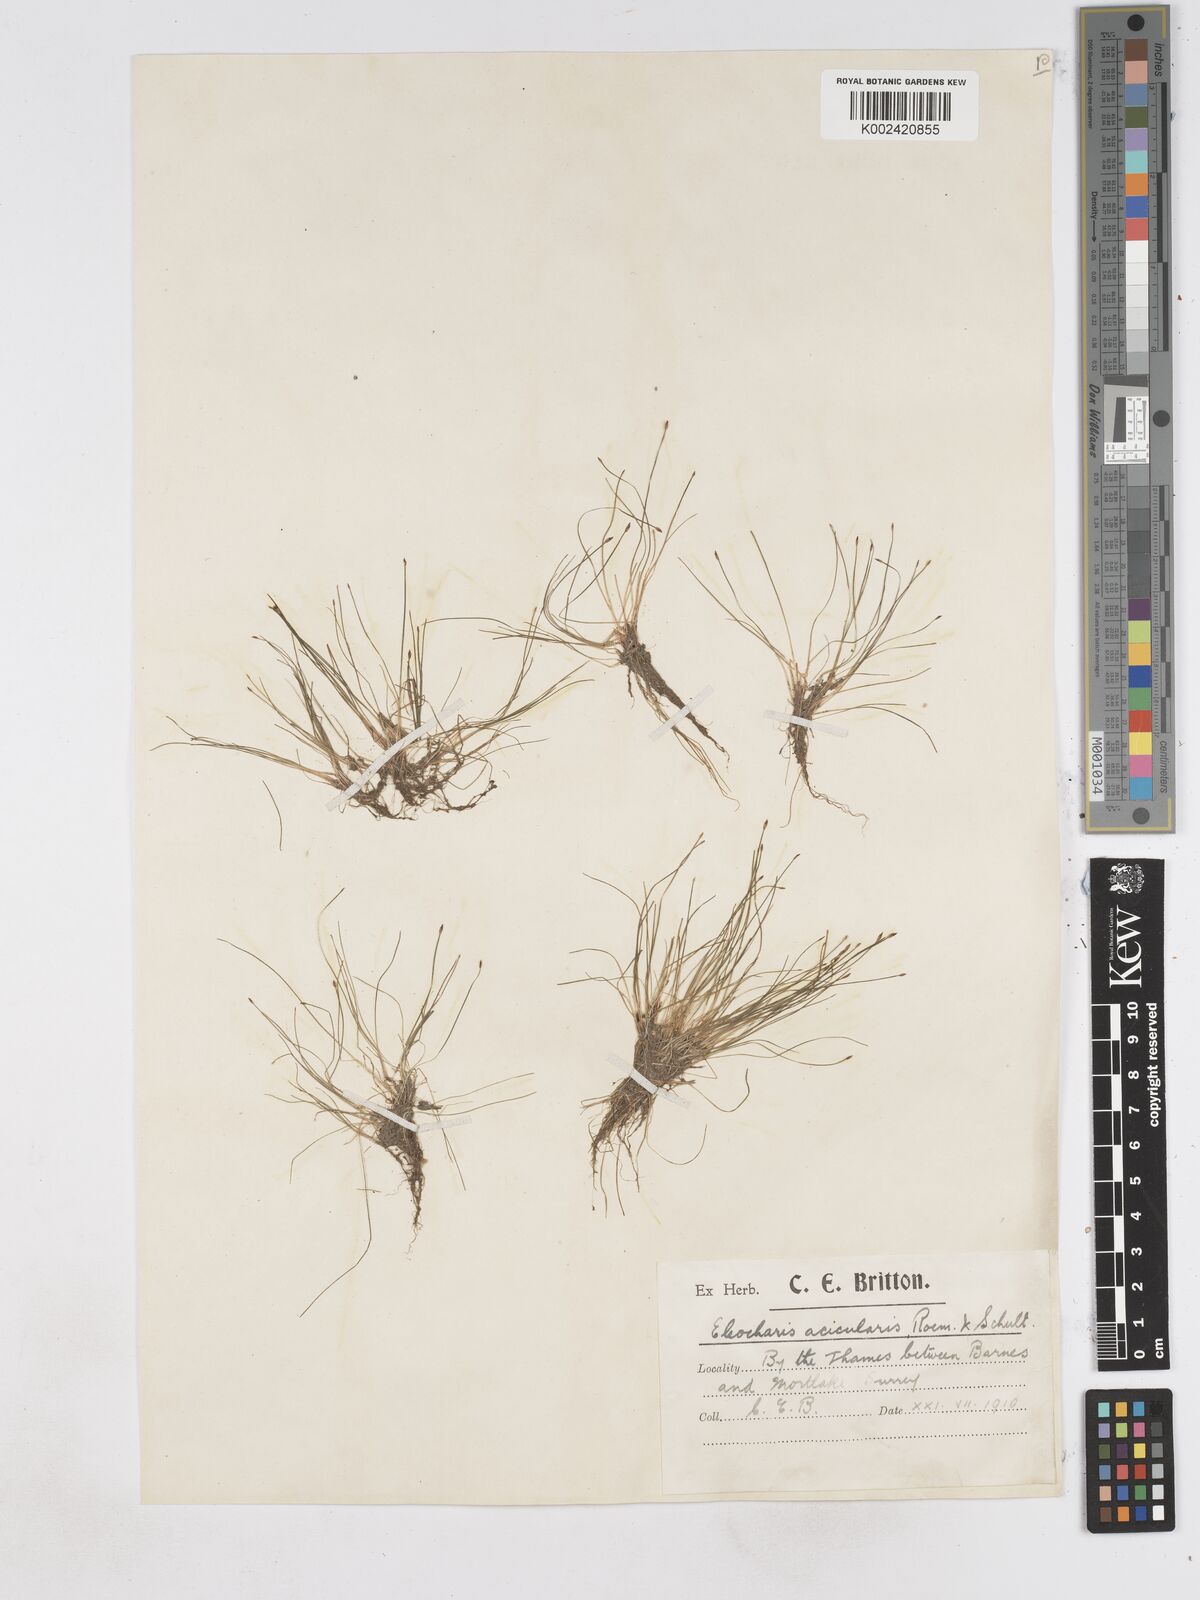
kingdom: Plantae
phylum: Tracheophyta
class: Liliopsida
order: Poales
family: Cyperaceae
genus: Eleocharis
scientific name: Eleocharis acicularis
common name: Needle spike-rush
